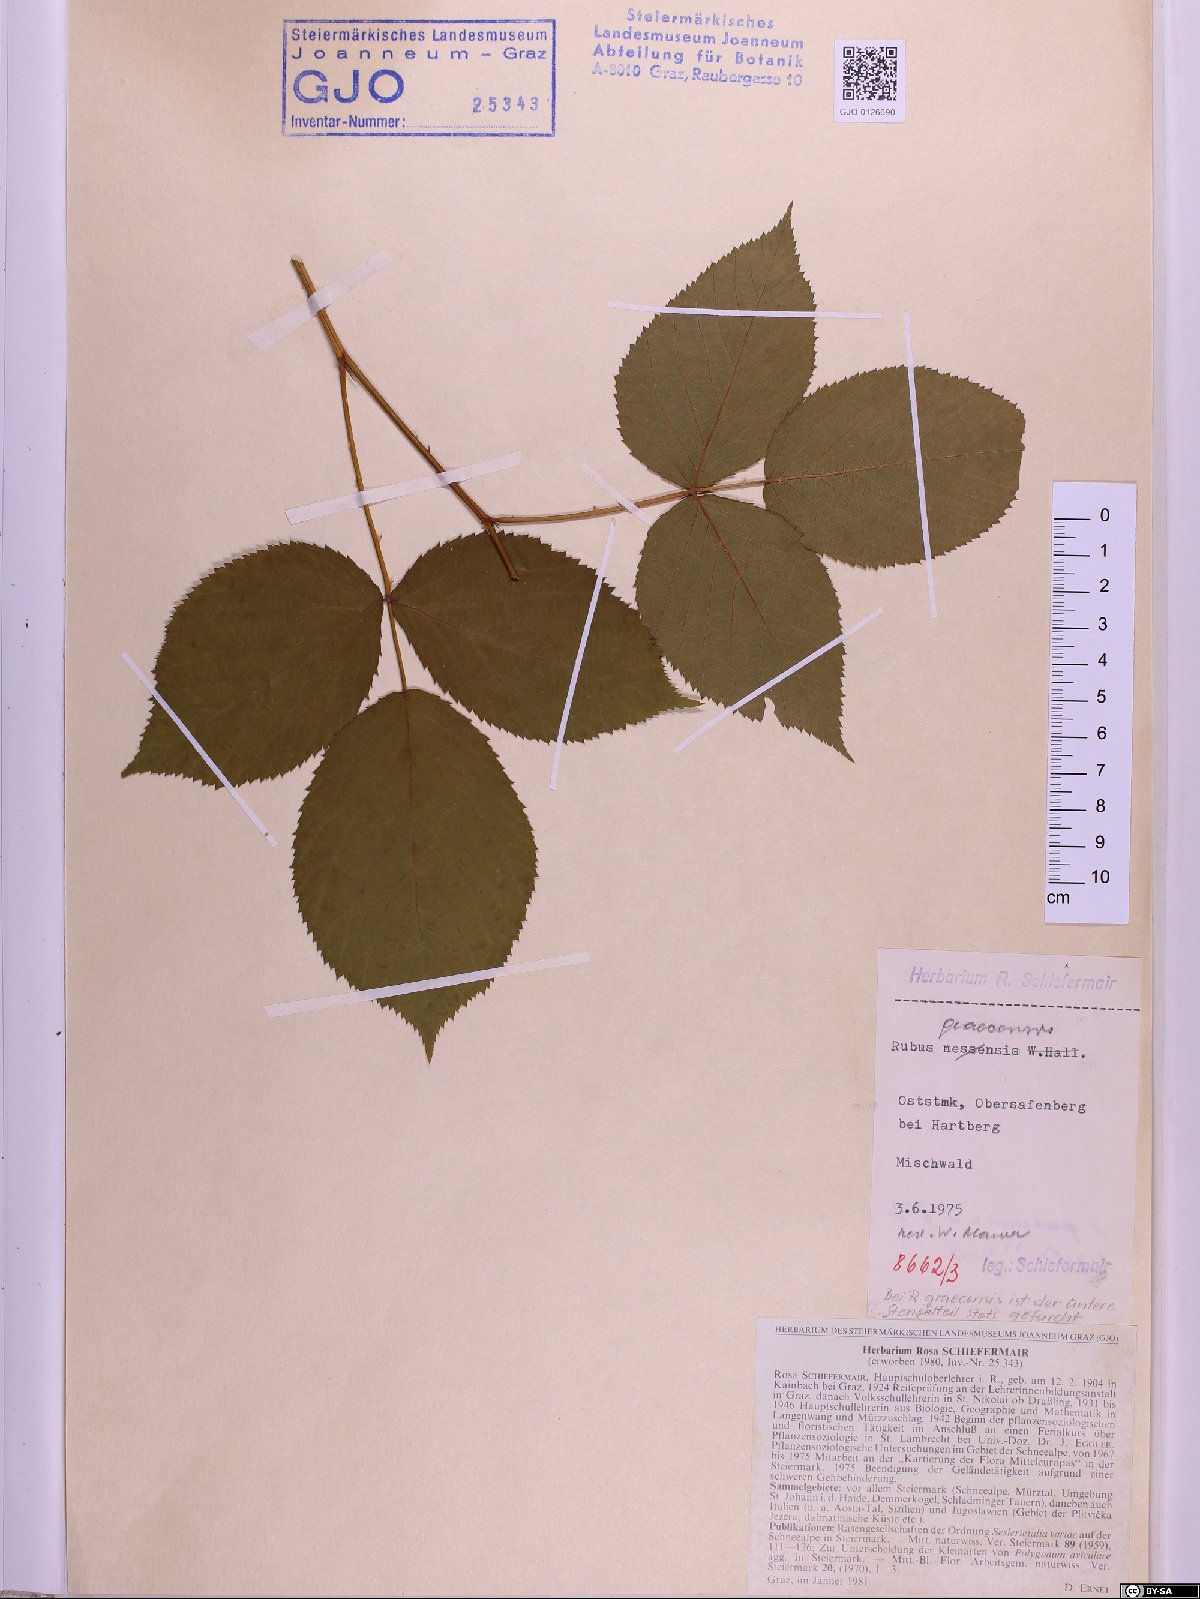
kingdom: Plantae
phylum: Tracheophyta
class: Magnoliopsida
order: Rosales
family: Rosaceae
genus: Rubus
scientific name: Rubus graecensis
